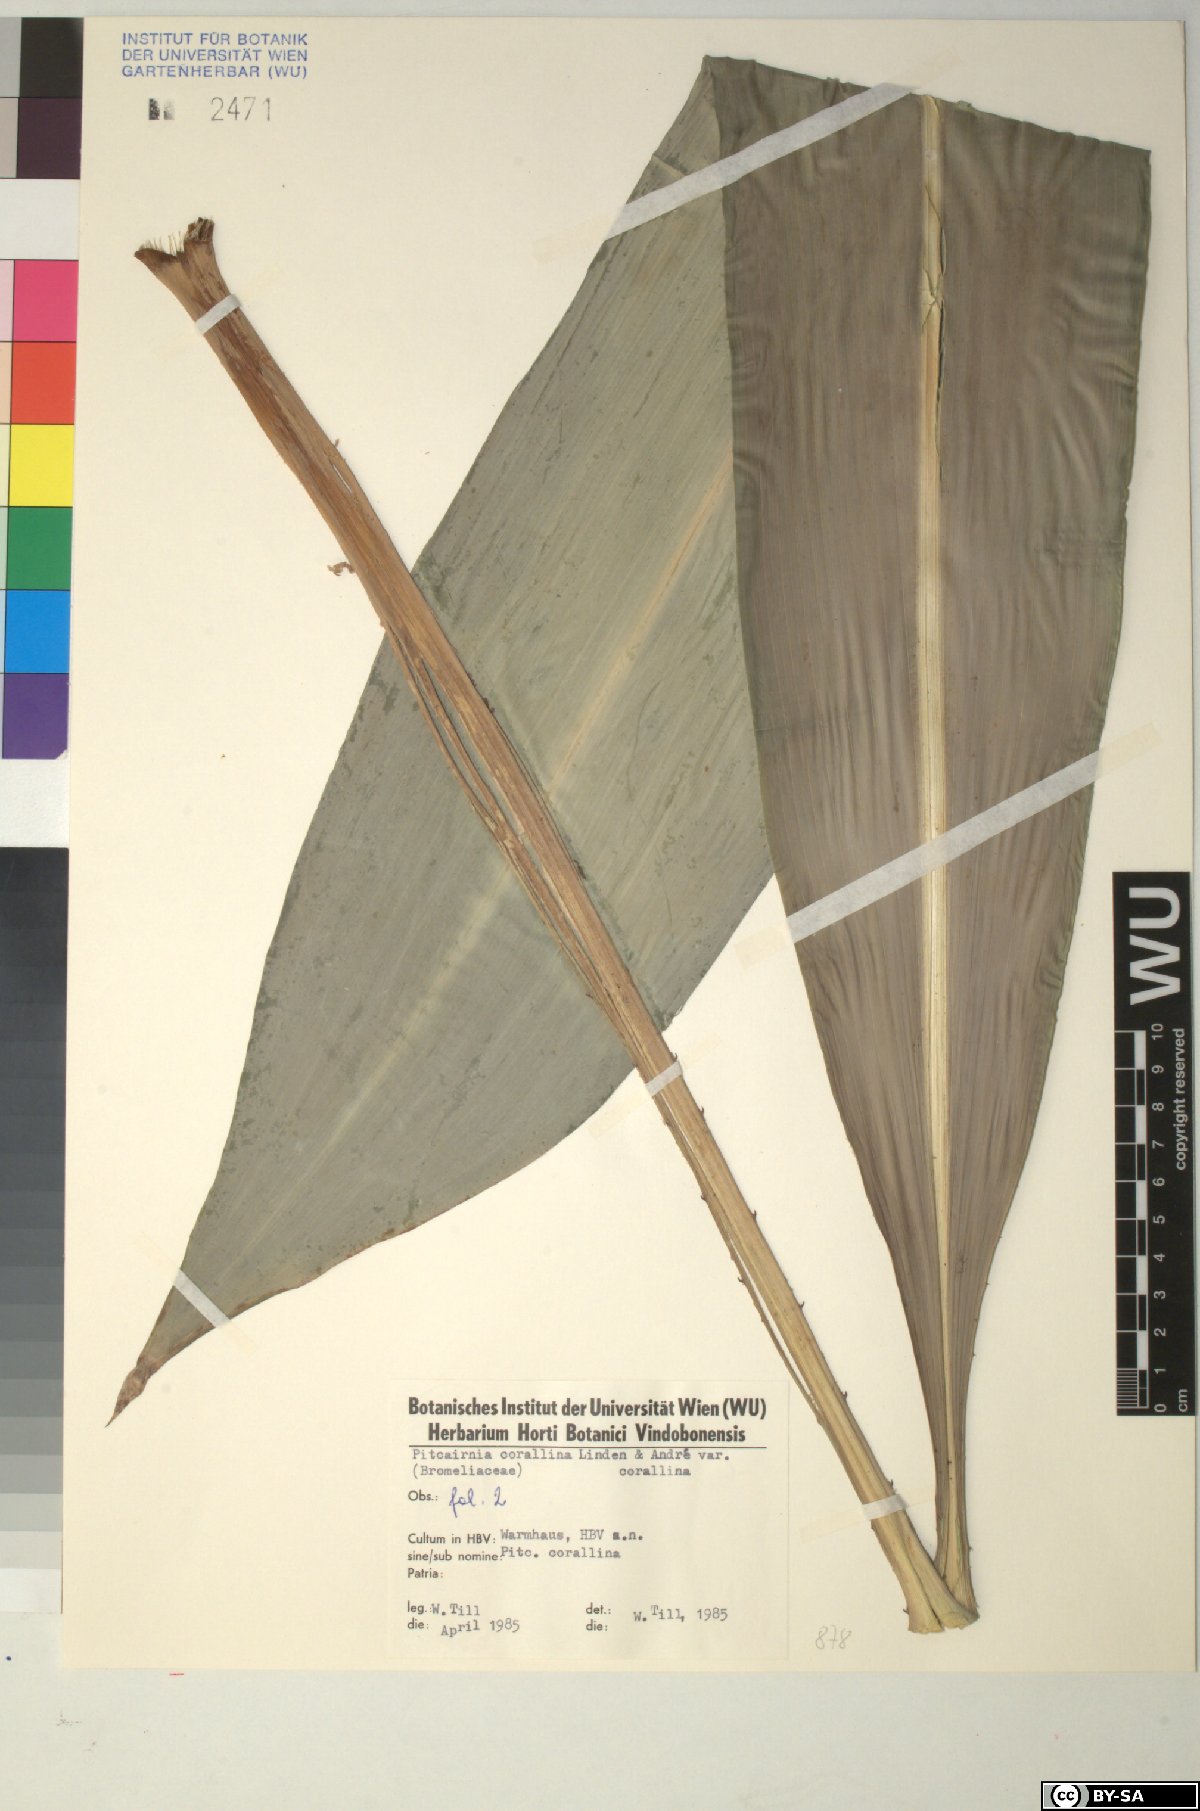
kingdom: Plantae
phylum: Tracheophyta
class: Liliopsida
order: Poales
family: Bromeliaceae
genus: Pitcairnia
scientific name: Pitcairnia
